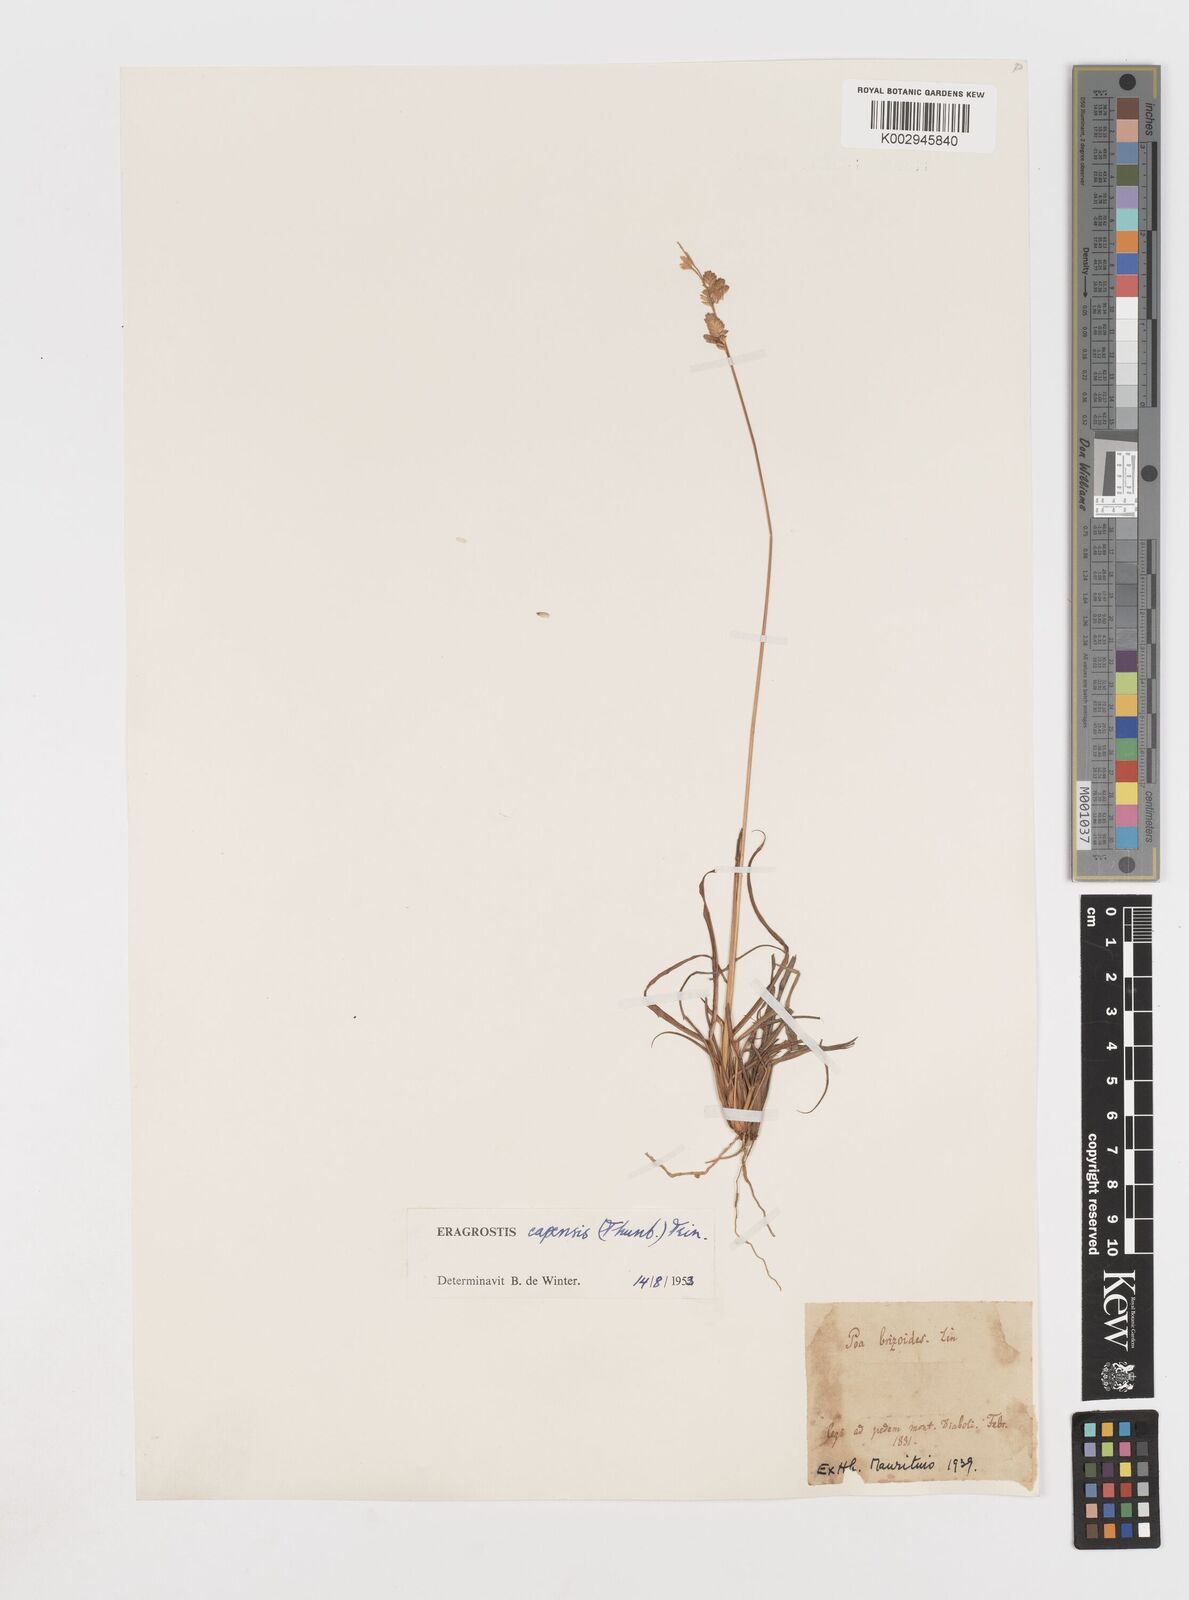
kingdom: Plantae
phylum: Tracheophyta
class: Liliopsida
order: Poales
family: Poaceae
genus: Eragrostis
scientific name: Eragrostis capensis
